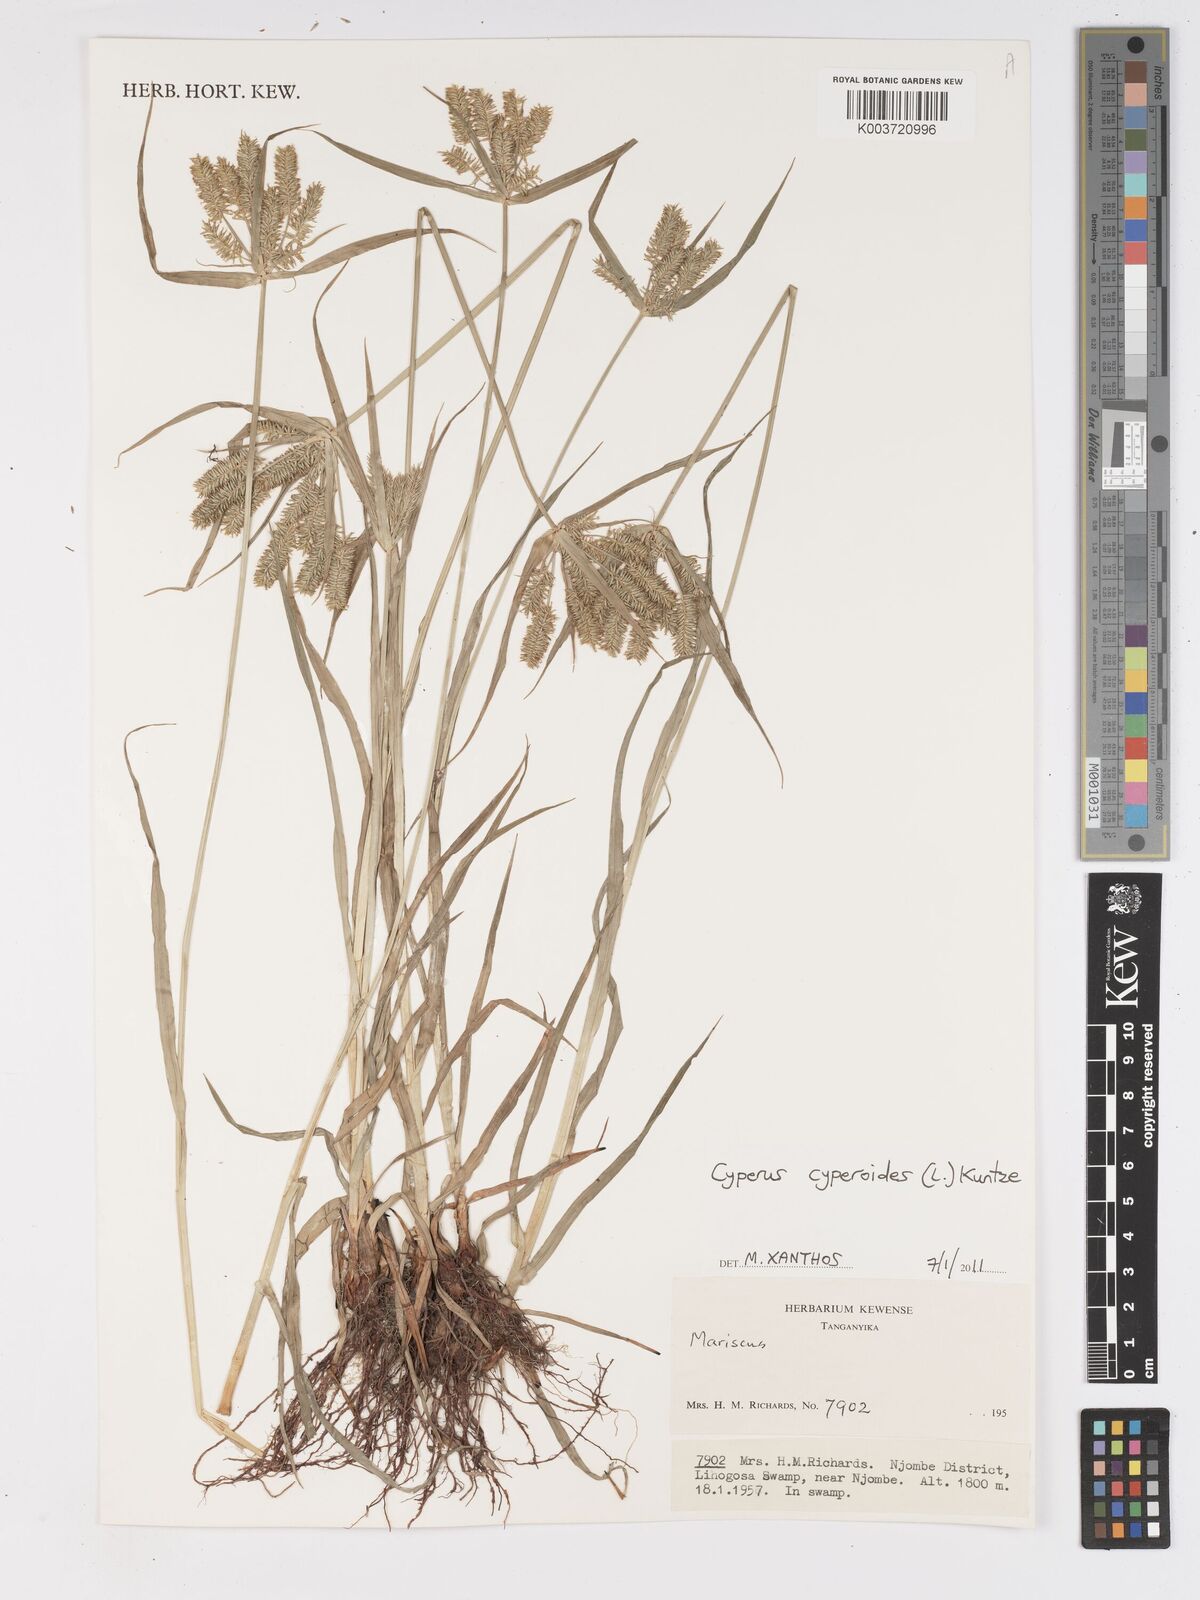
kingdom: Plantae
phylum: Tracheophyta
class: Liliopsida
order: Poales
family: Cyperaceae
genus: Cyperus
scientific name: Cyperus
